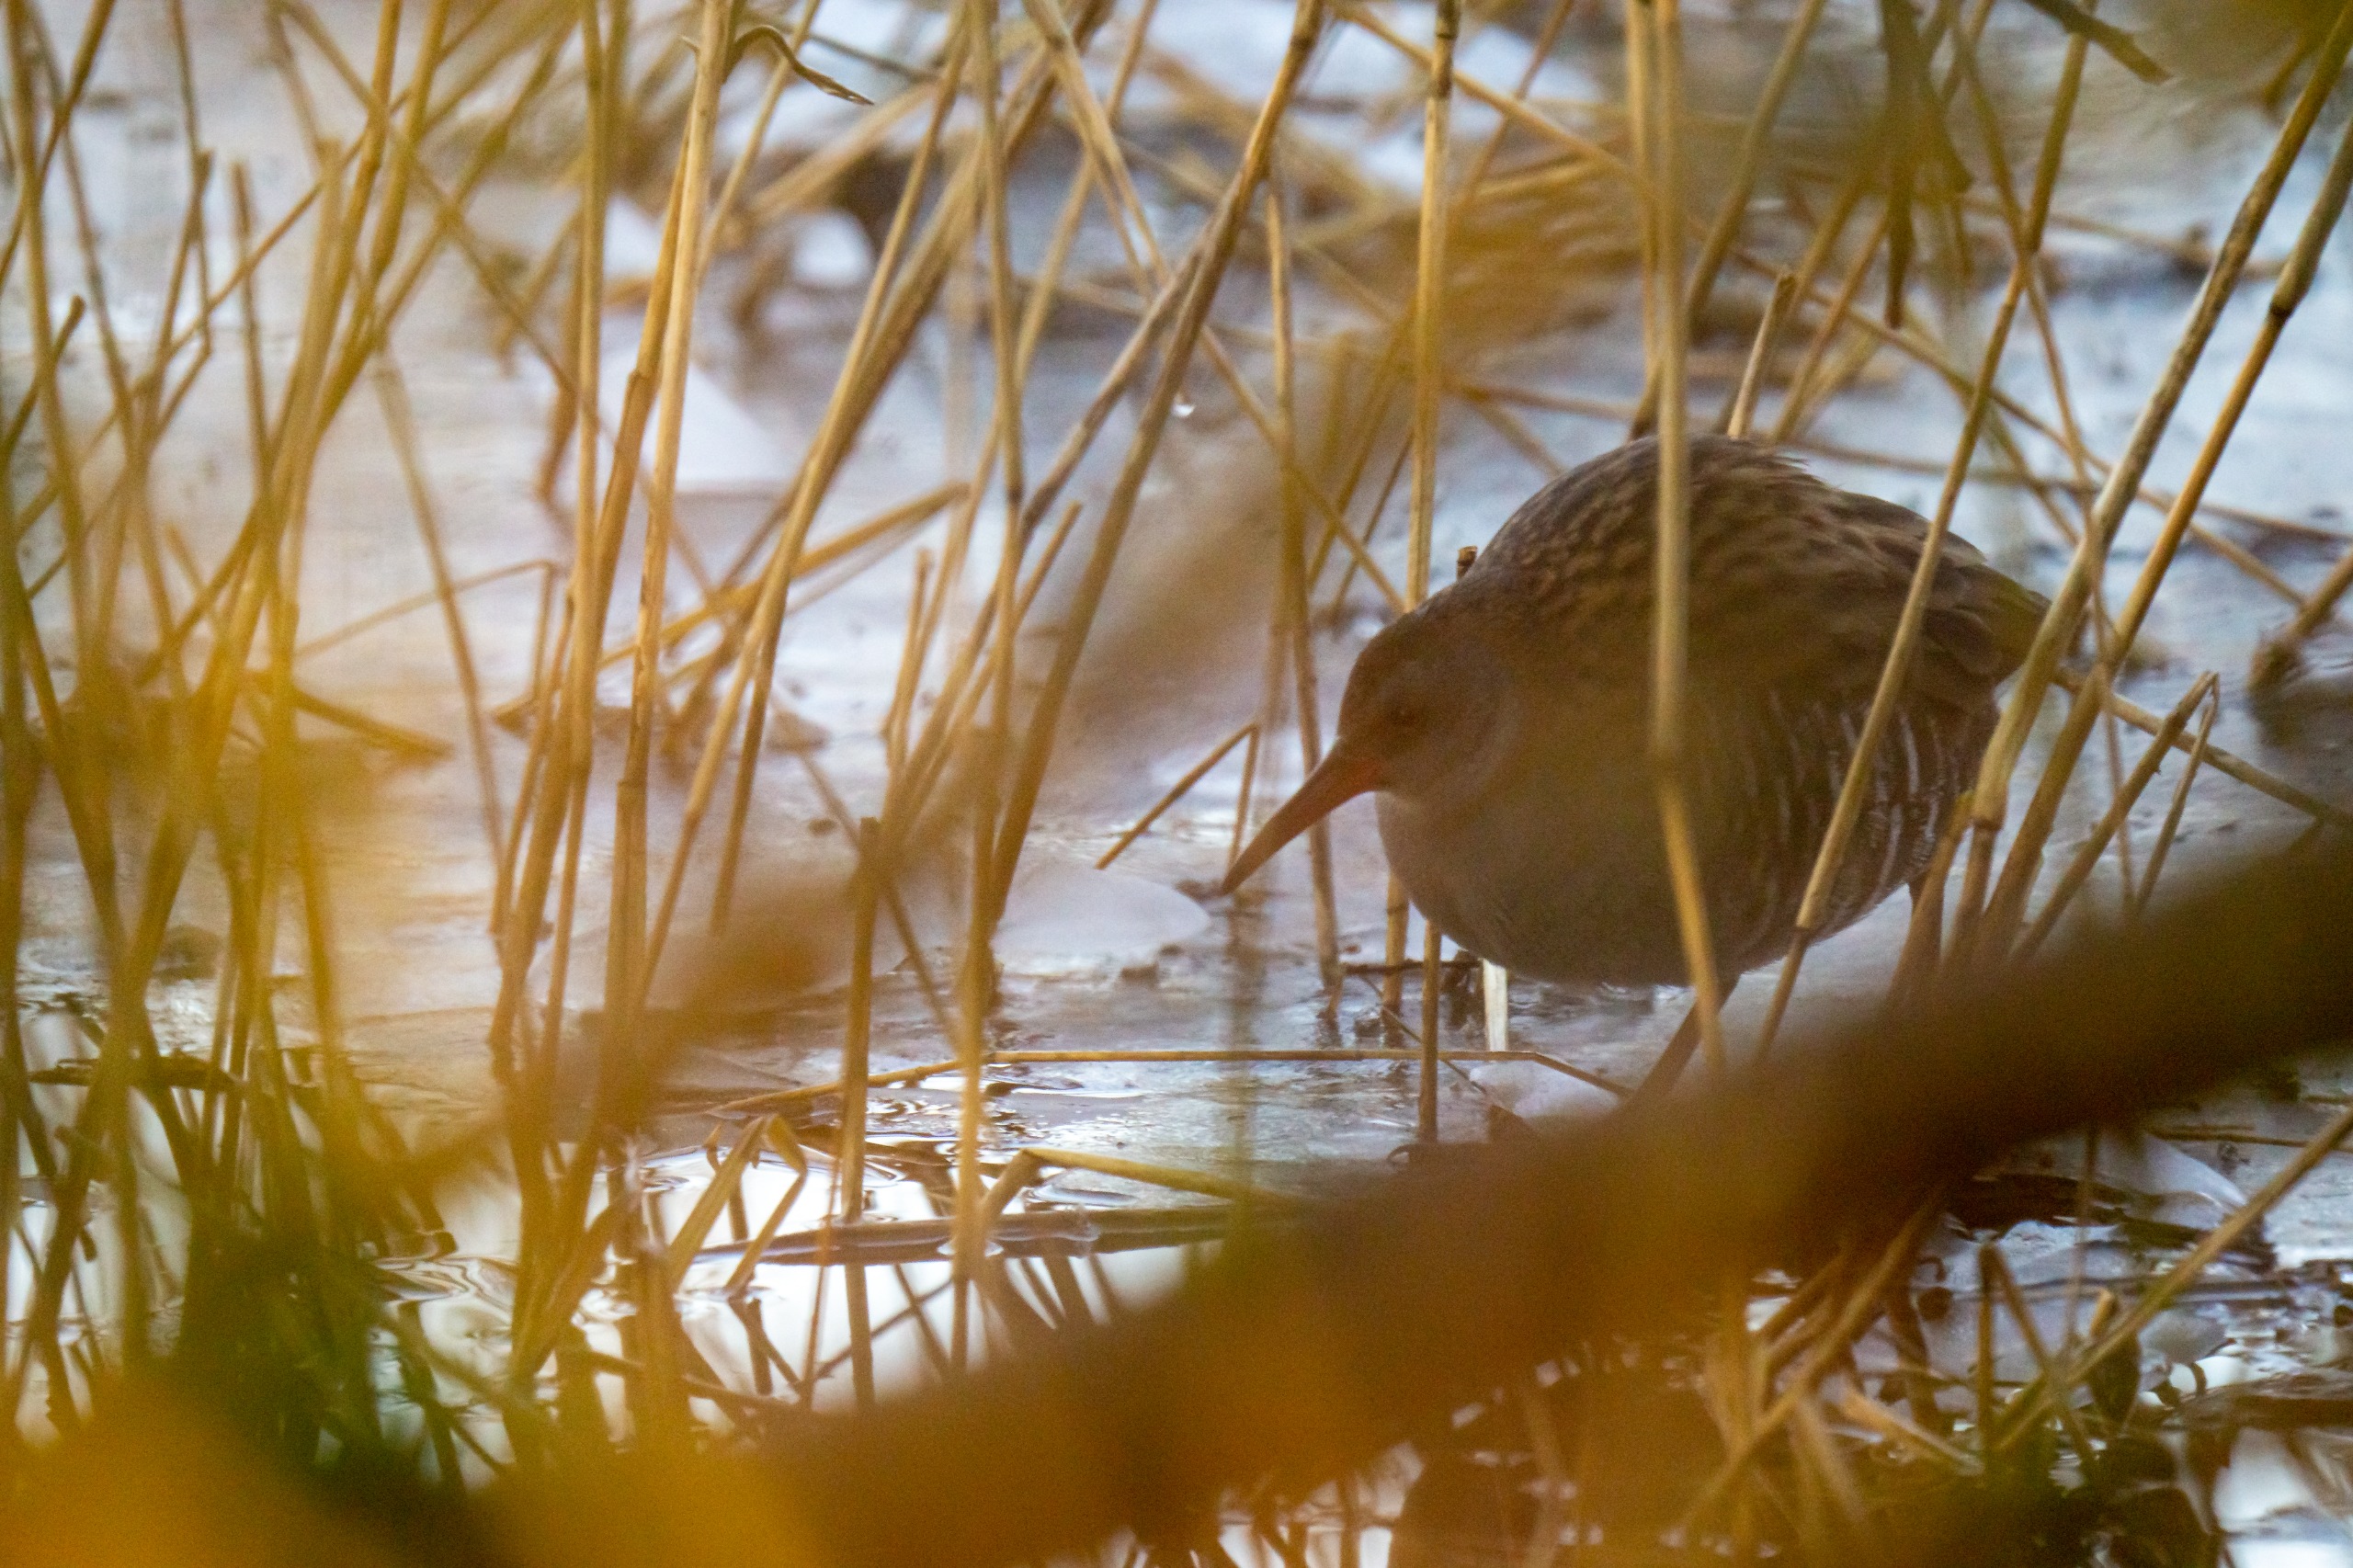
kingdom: Animalia
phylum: Chordata
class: Aves
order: Gruiformes
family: Rallidae
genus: Rallus
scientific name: Rallus aquaticus
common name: Vandrikse
